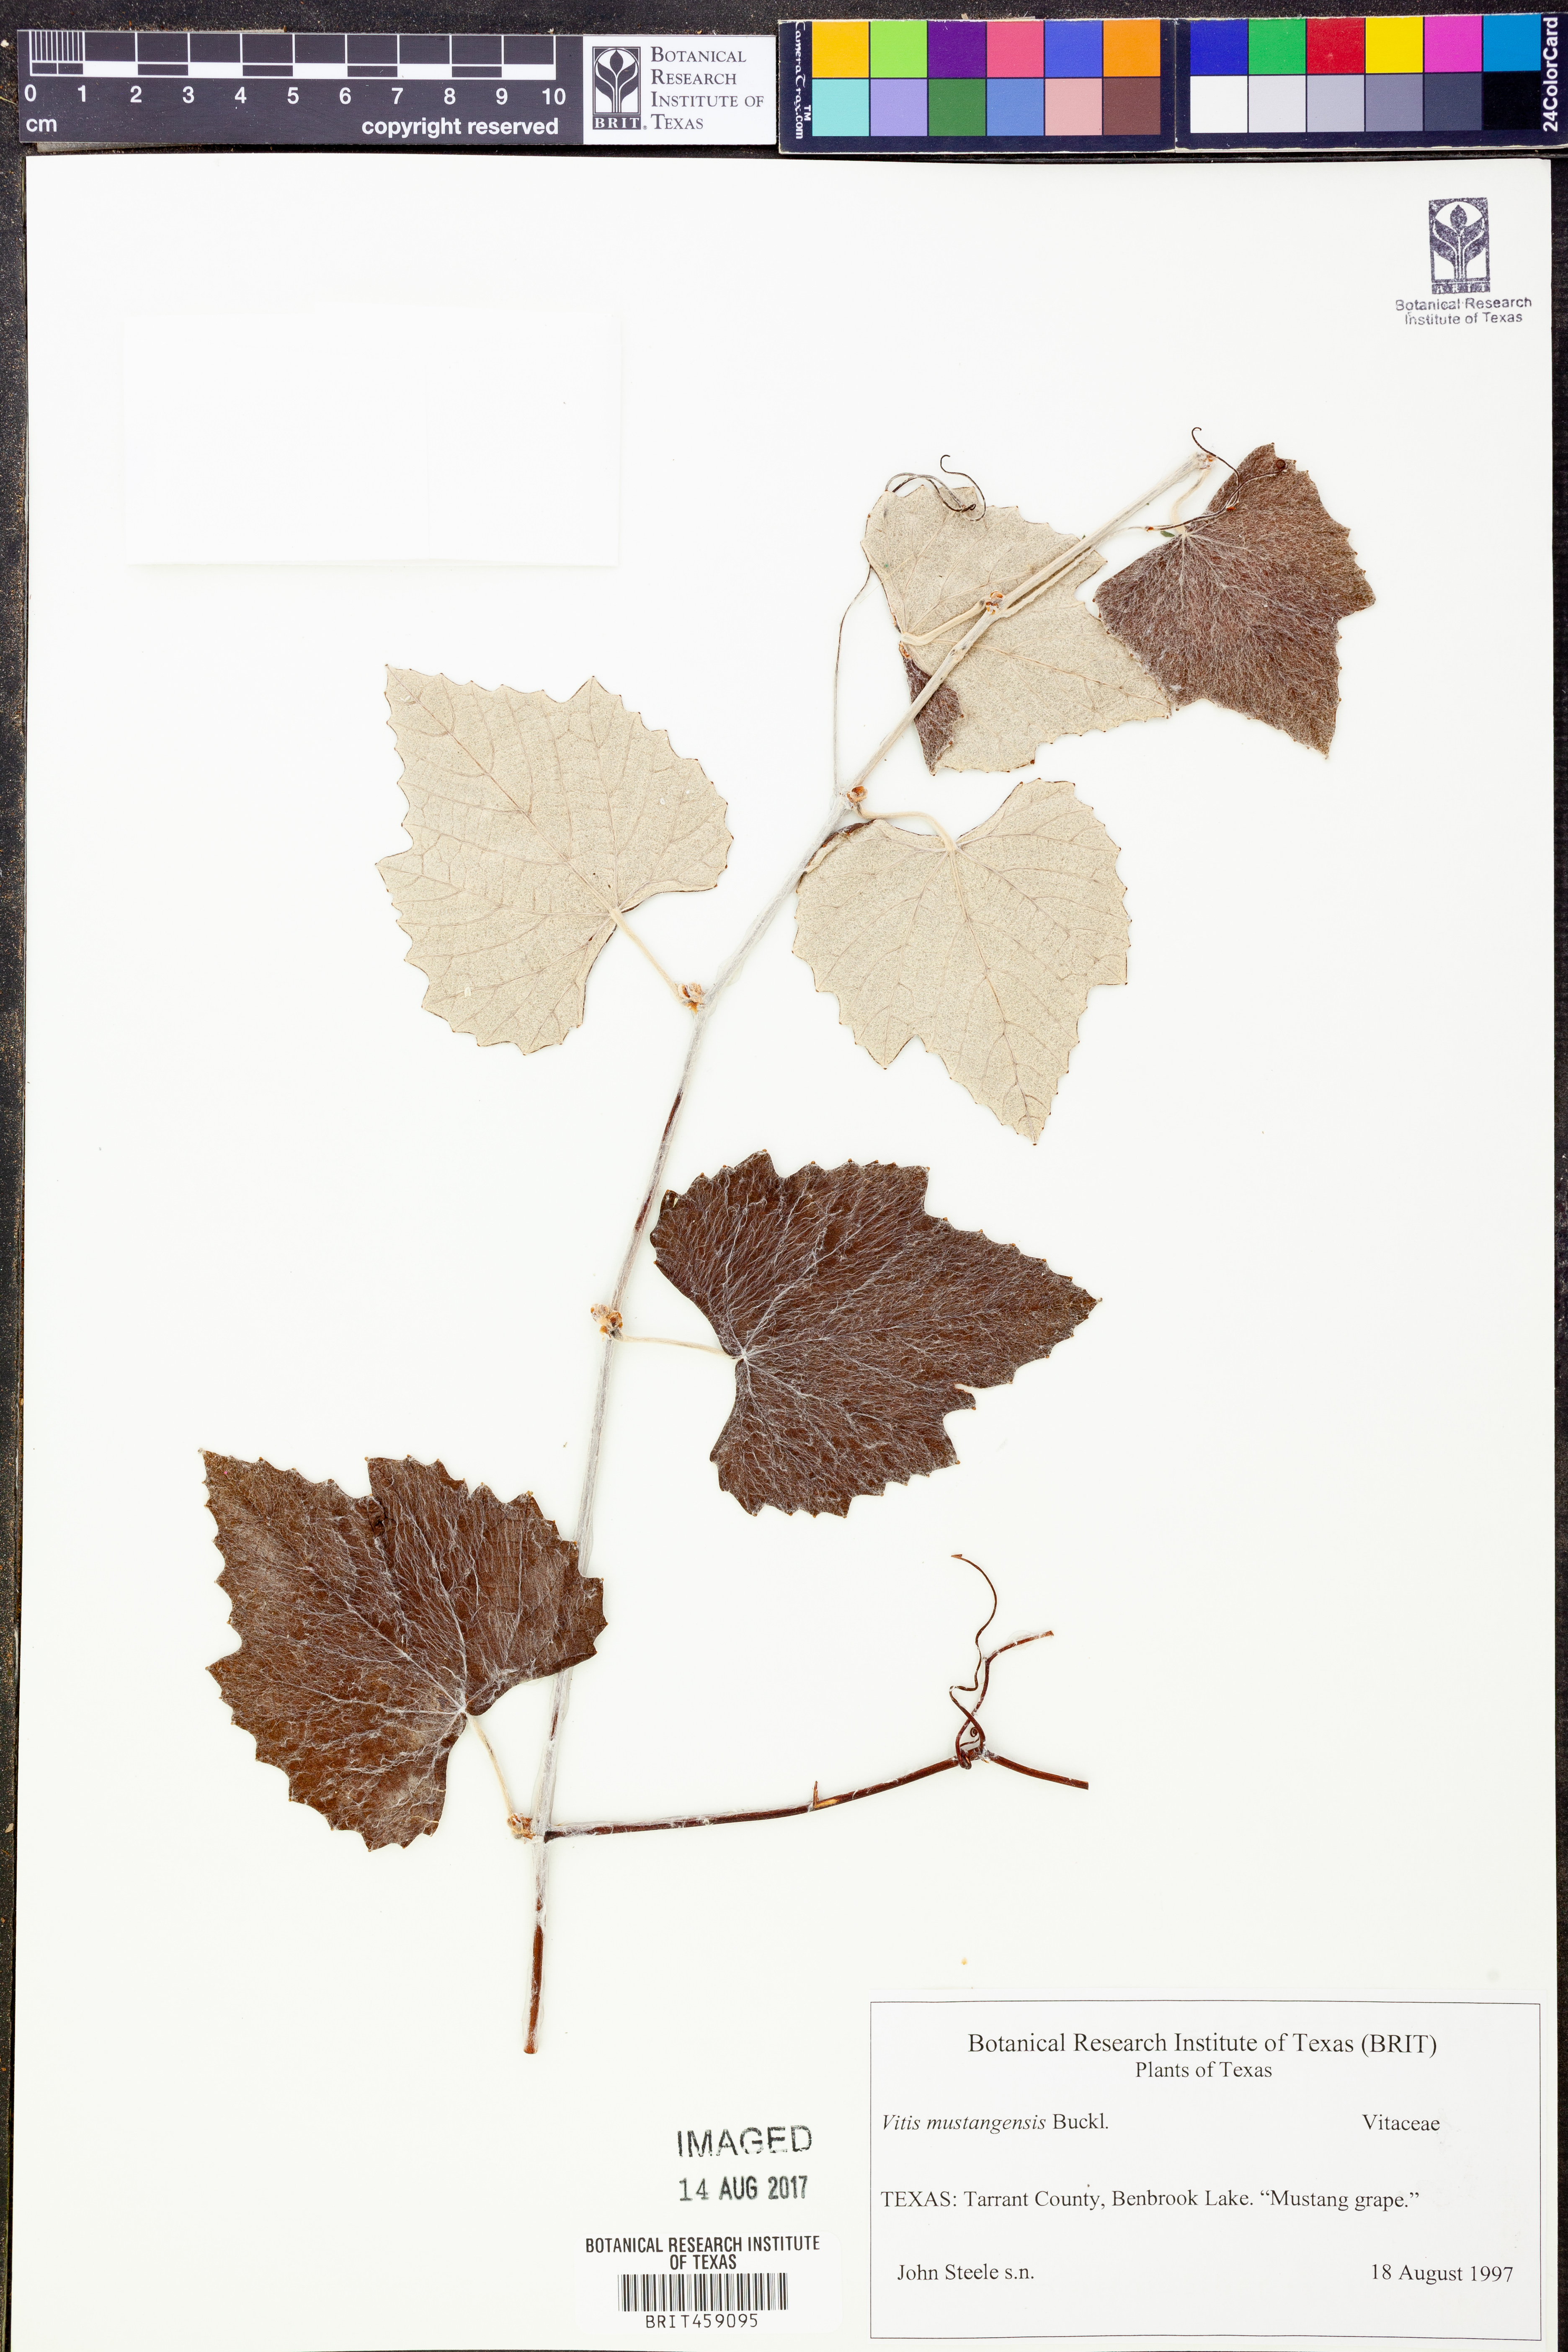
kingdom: Plantae
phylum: Tracheophyta
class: Magnoliopsida
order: Vitales
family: Vitaceae
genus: Vitis
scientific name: Vitis mustangensis
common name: Mustang grape
